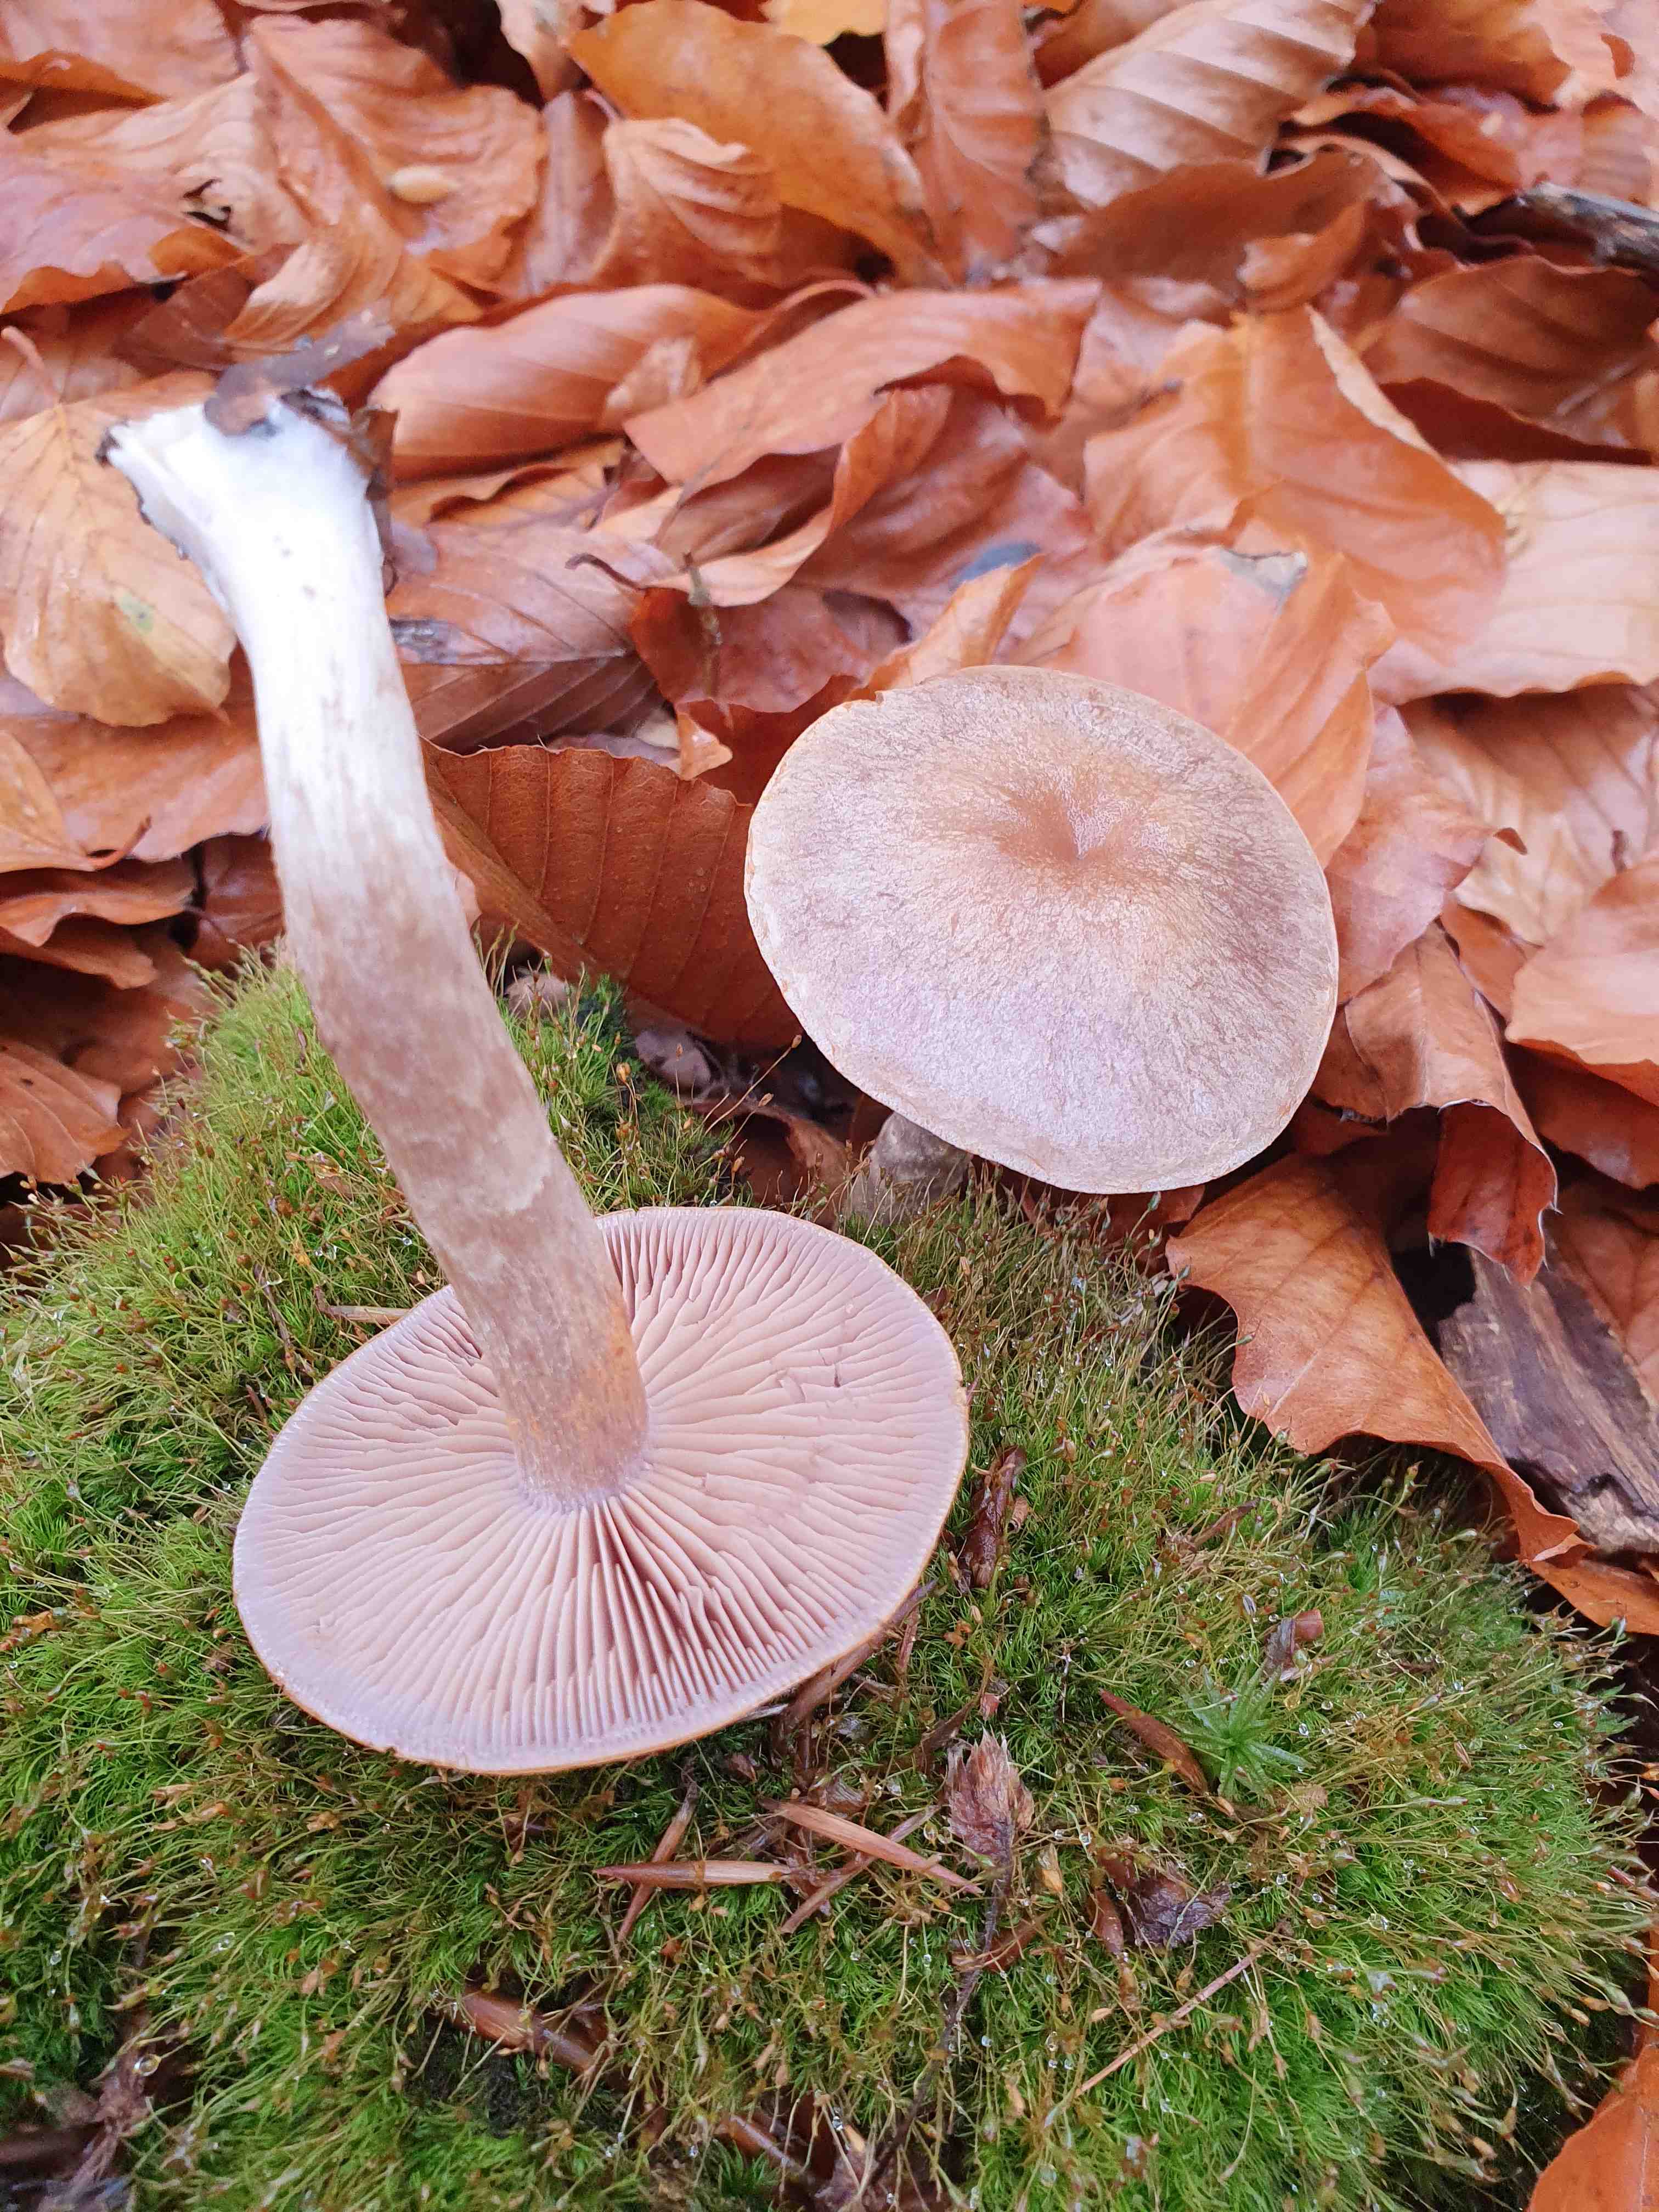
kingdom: Fungi
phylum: Basidiomycota
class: Agaricomycetes
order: Agaricales
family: Cortinariaceae
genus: Cortinarius
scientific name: Cortinarius
